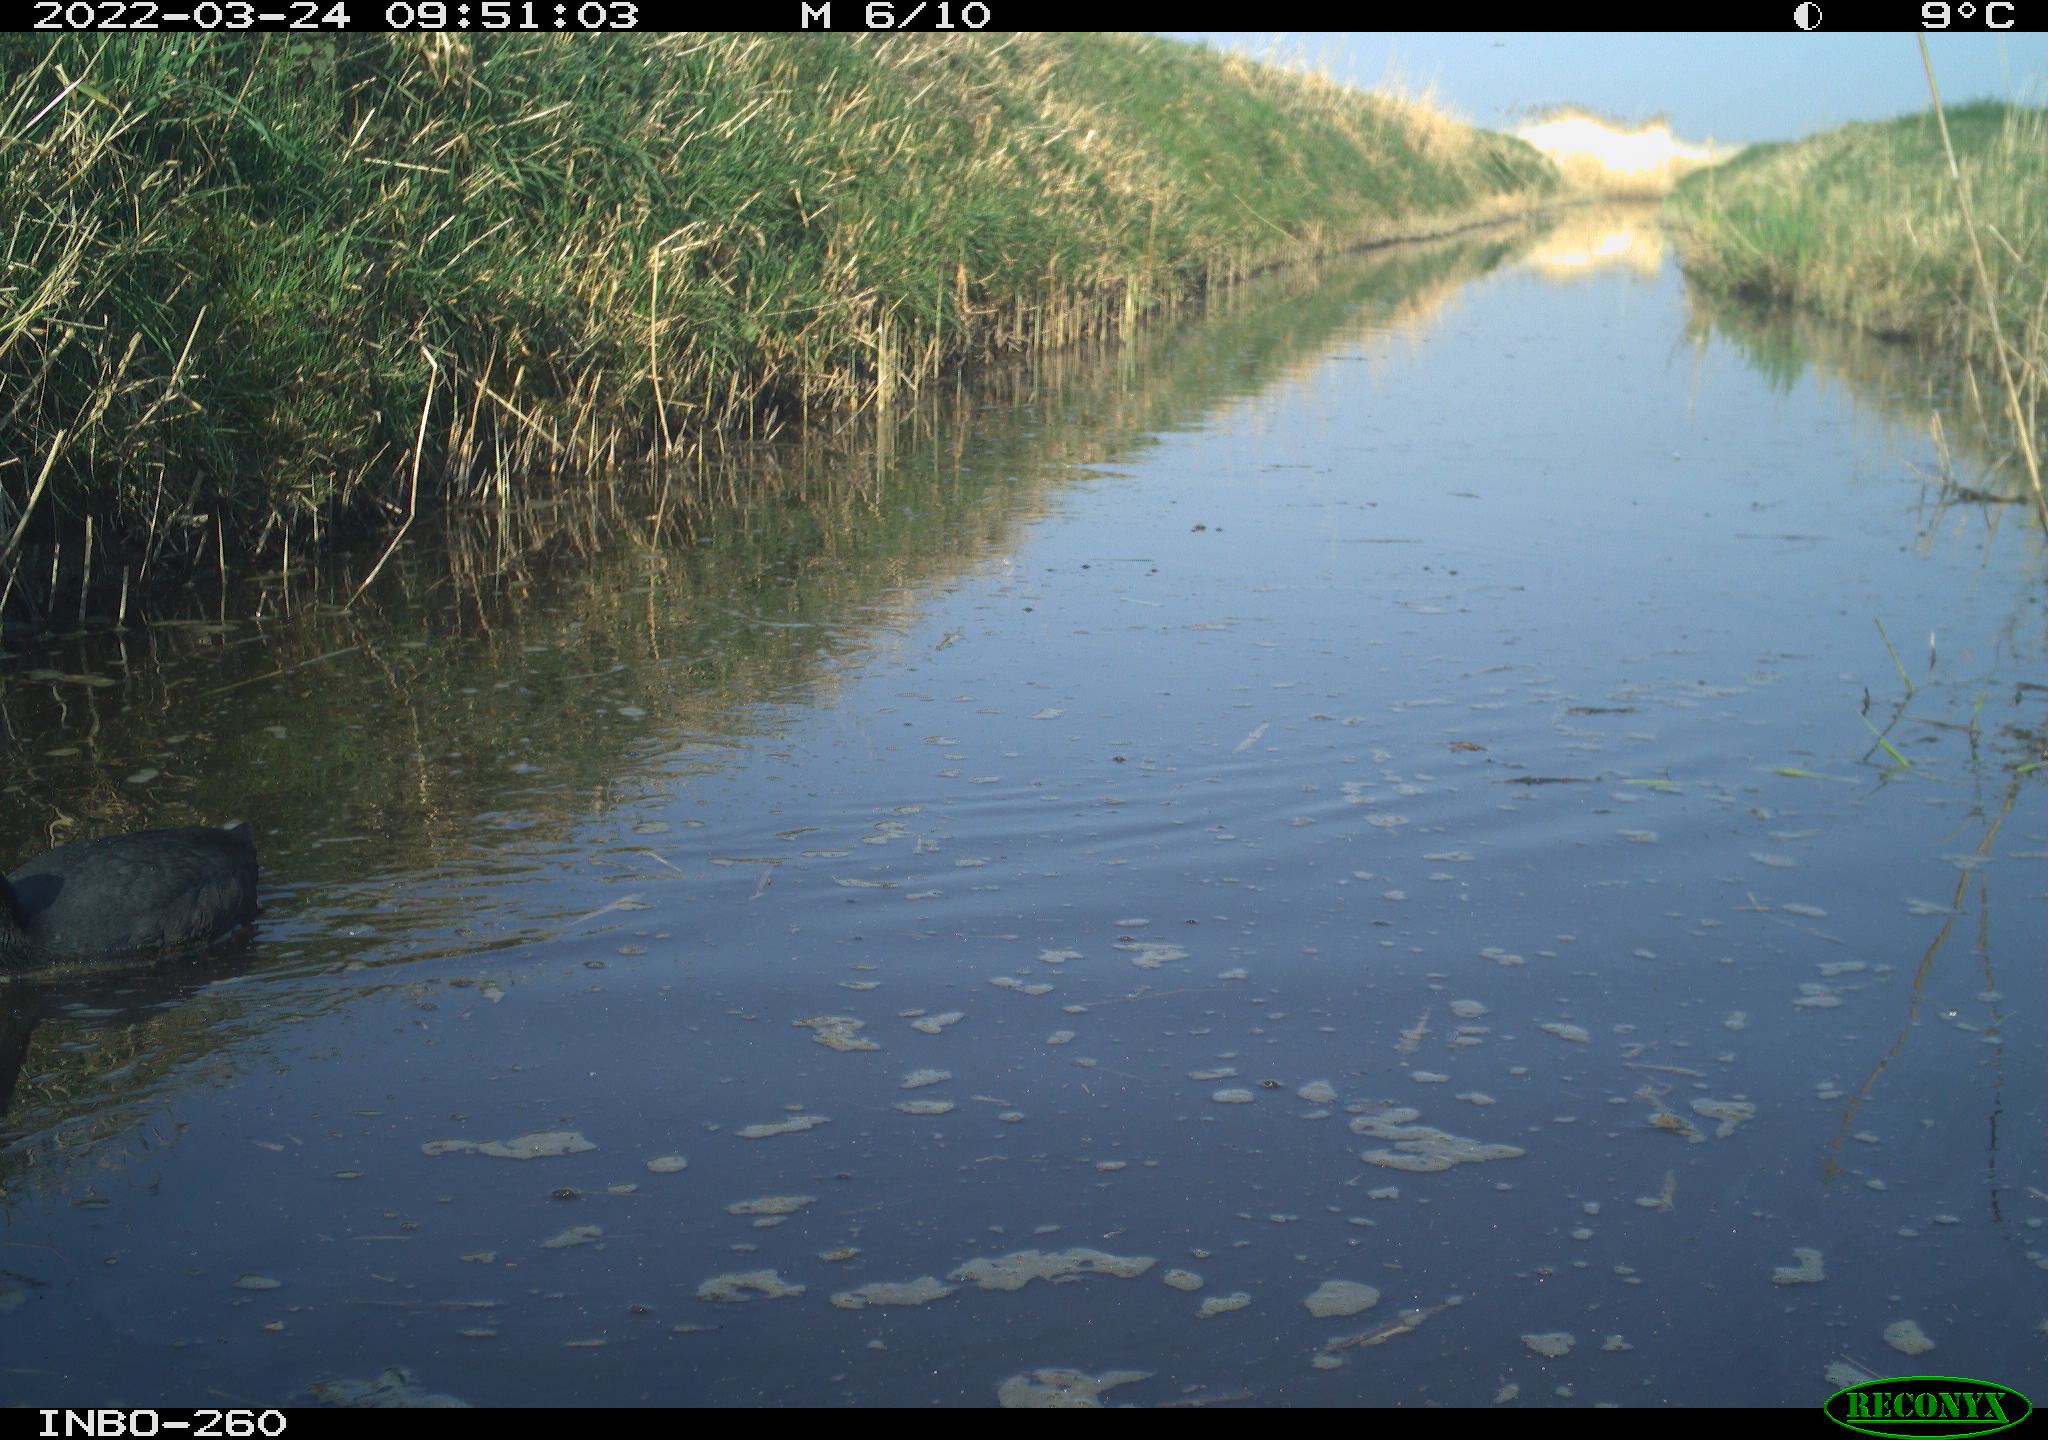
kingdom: Animalia
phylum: Chordata
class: Aves
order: Gruiformes
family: Rallidae
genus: Fulica
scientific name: Fulica atra
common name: Eurasian coot
